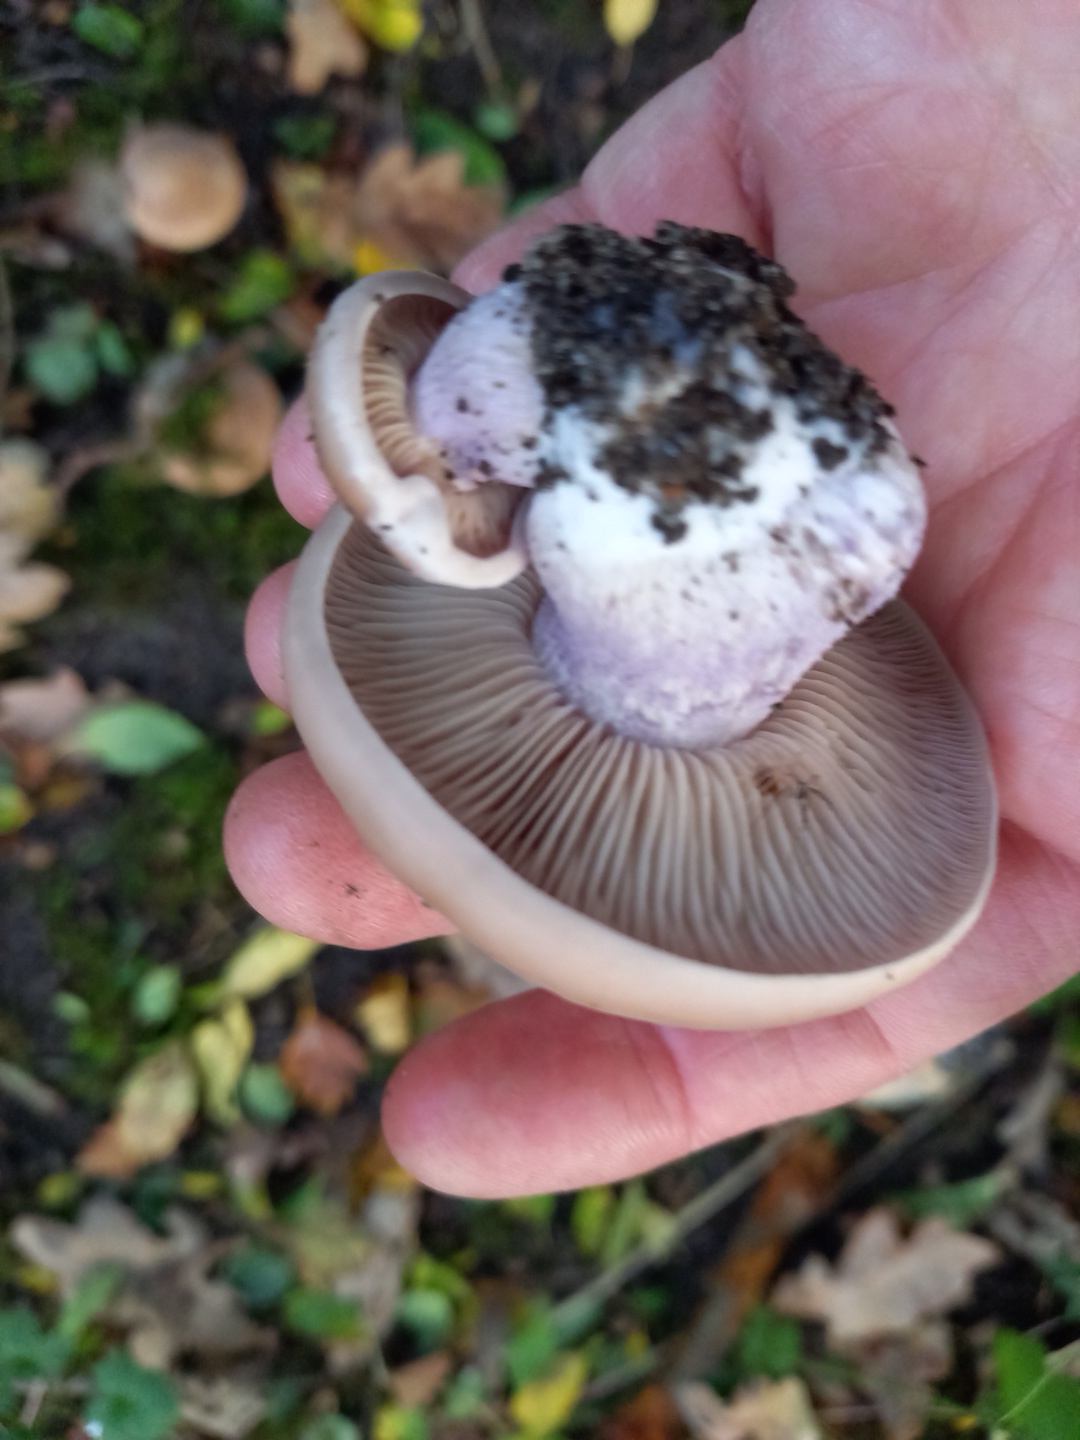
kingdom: Fungi
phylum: Basidiomycota
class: Agaricomycetes
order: Agaricales
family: Tricholomataceae
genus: Lepista
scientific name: Lepista personata
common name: bleg hekseringshat
